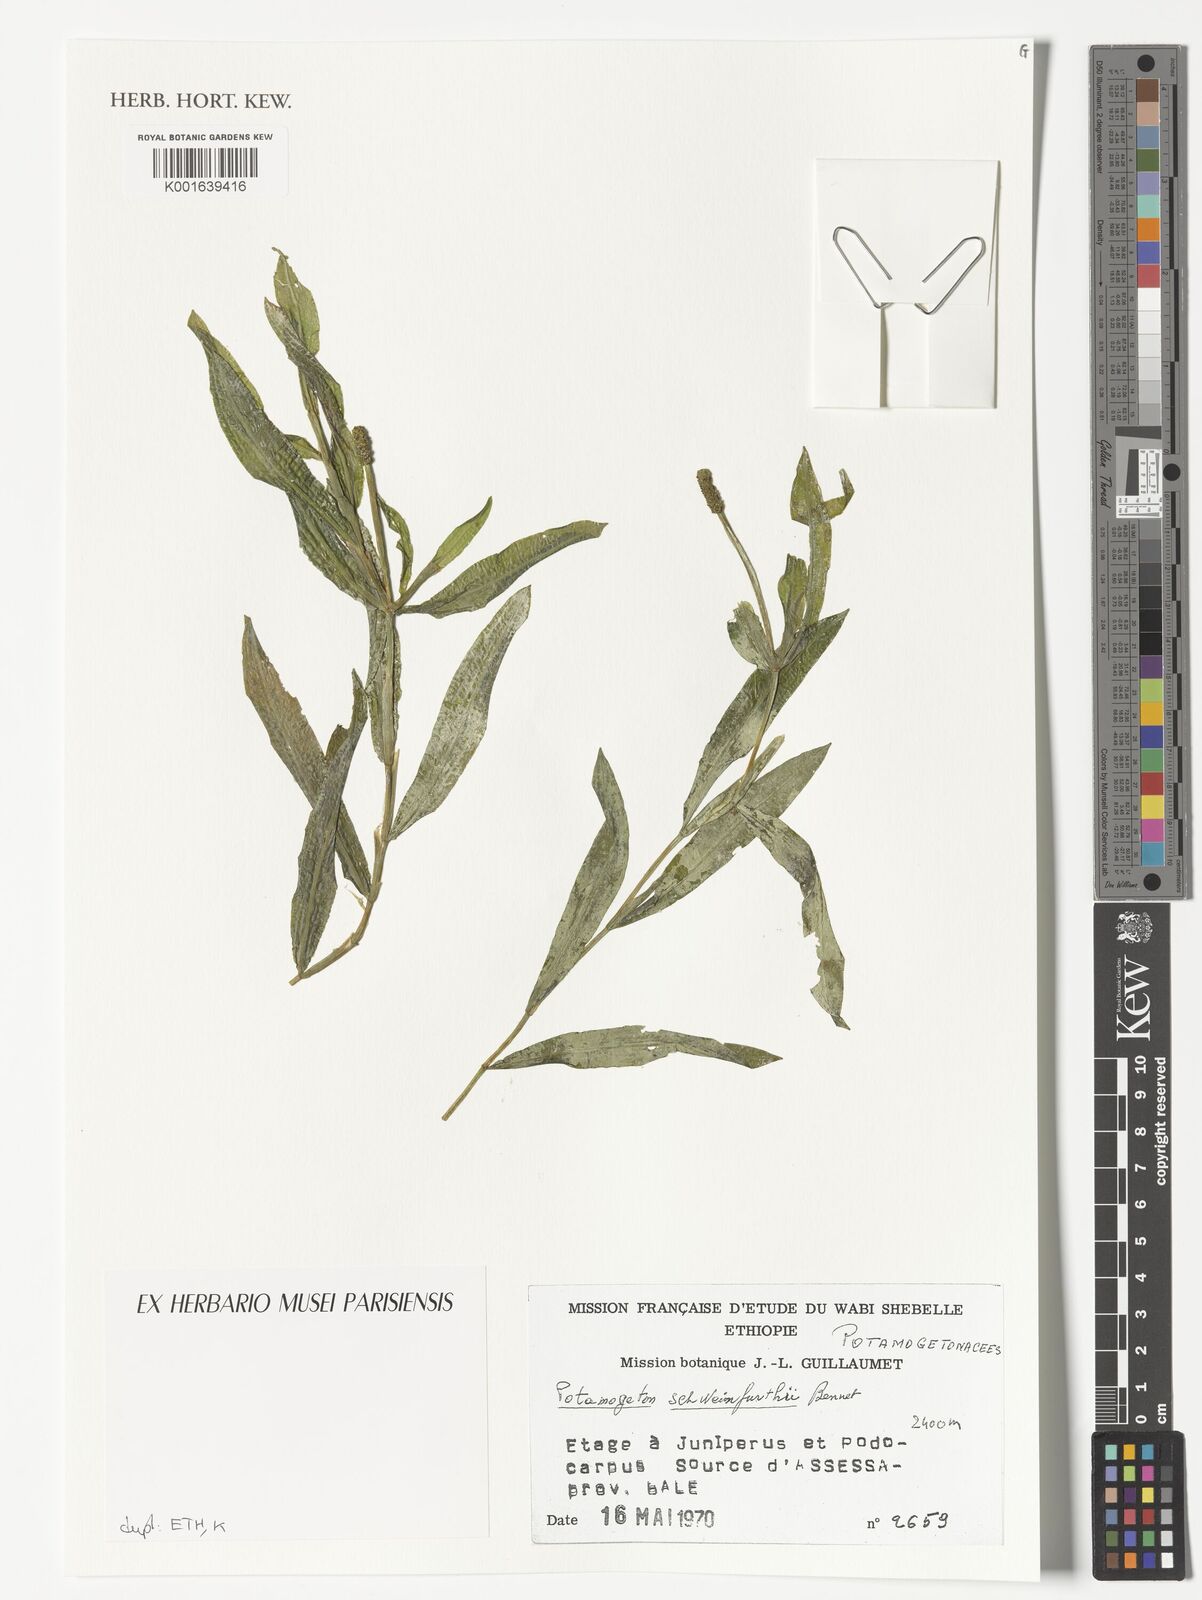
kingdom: Plantae
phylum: Tracheophyta
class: Liliopsida
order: Alismatales
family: Potamogetonaceae
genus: Potamogeton
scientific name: Potamogeton schweinfurthii
